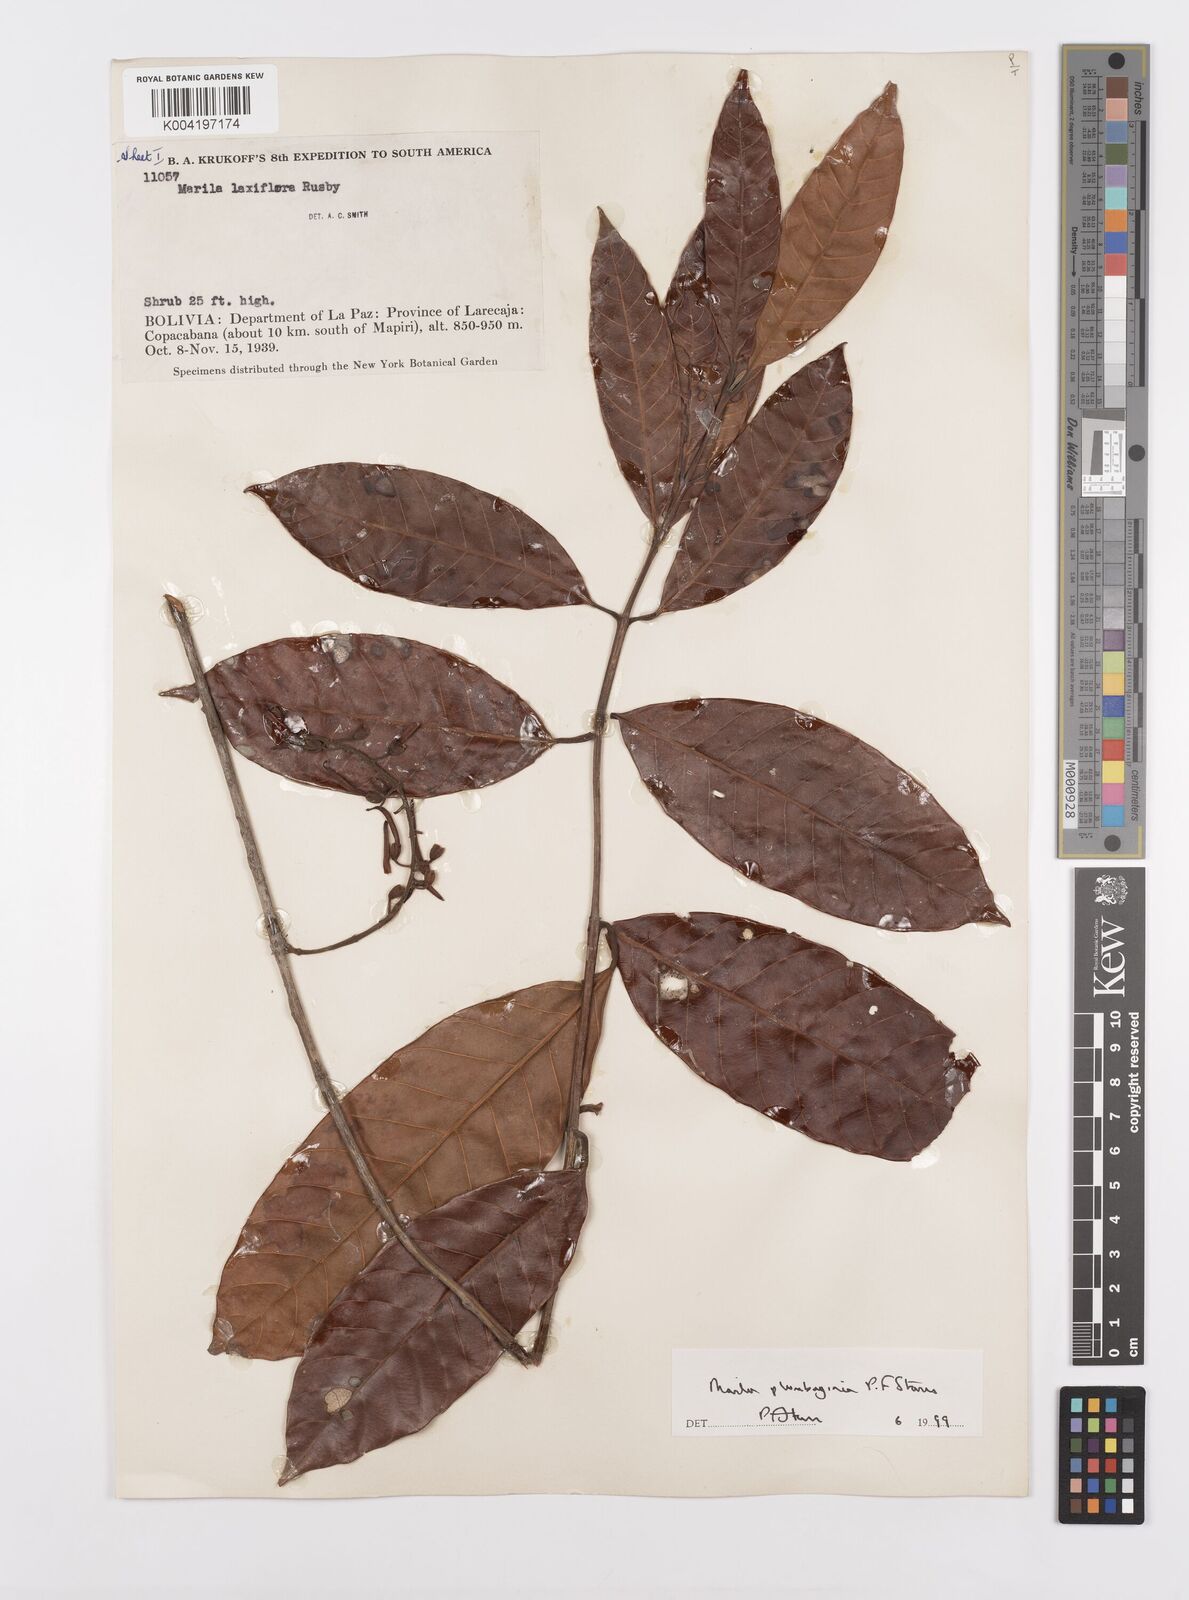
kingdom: Plantae
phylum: Tracheophyta
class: Magnoliopsida
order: Malpighiales
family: Calophyllaceae
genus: Marila
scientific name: Marila
